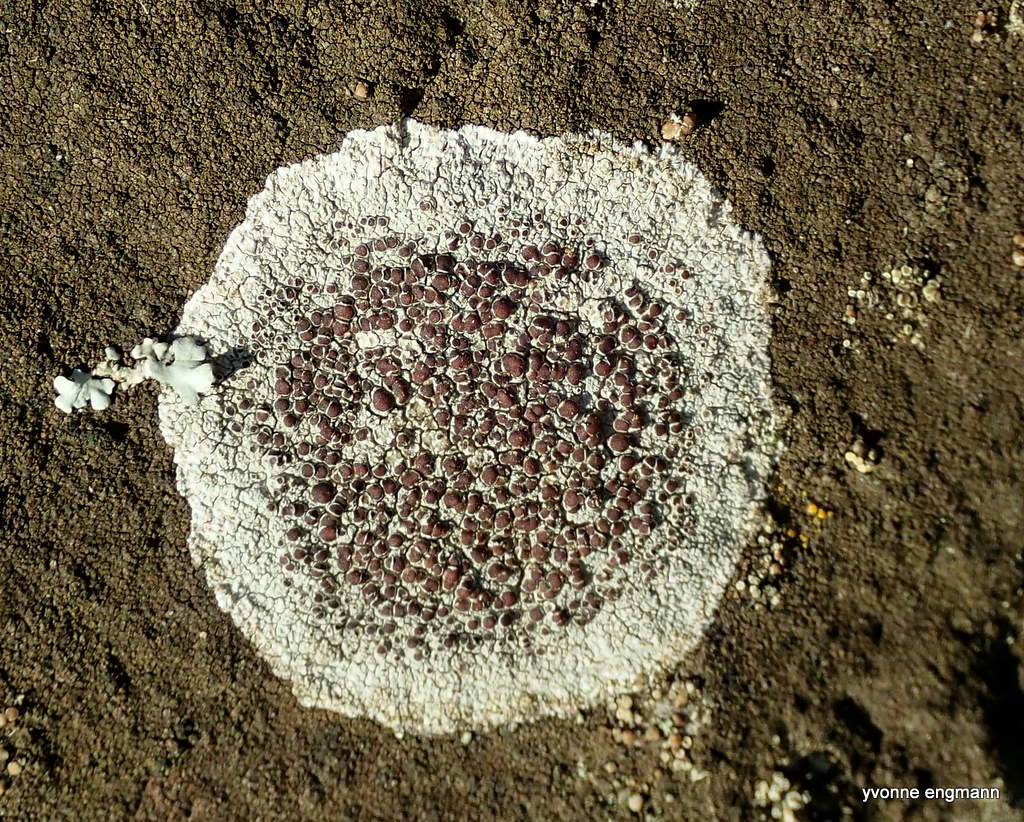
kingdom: Fungi
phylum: Ascomycota
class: Lecanoromycetes
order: Lecanorales
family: Lecanoraceae
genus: Lecanora
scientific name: Lecanora campestris
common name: mur-kantskivelav
